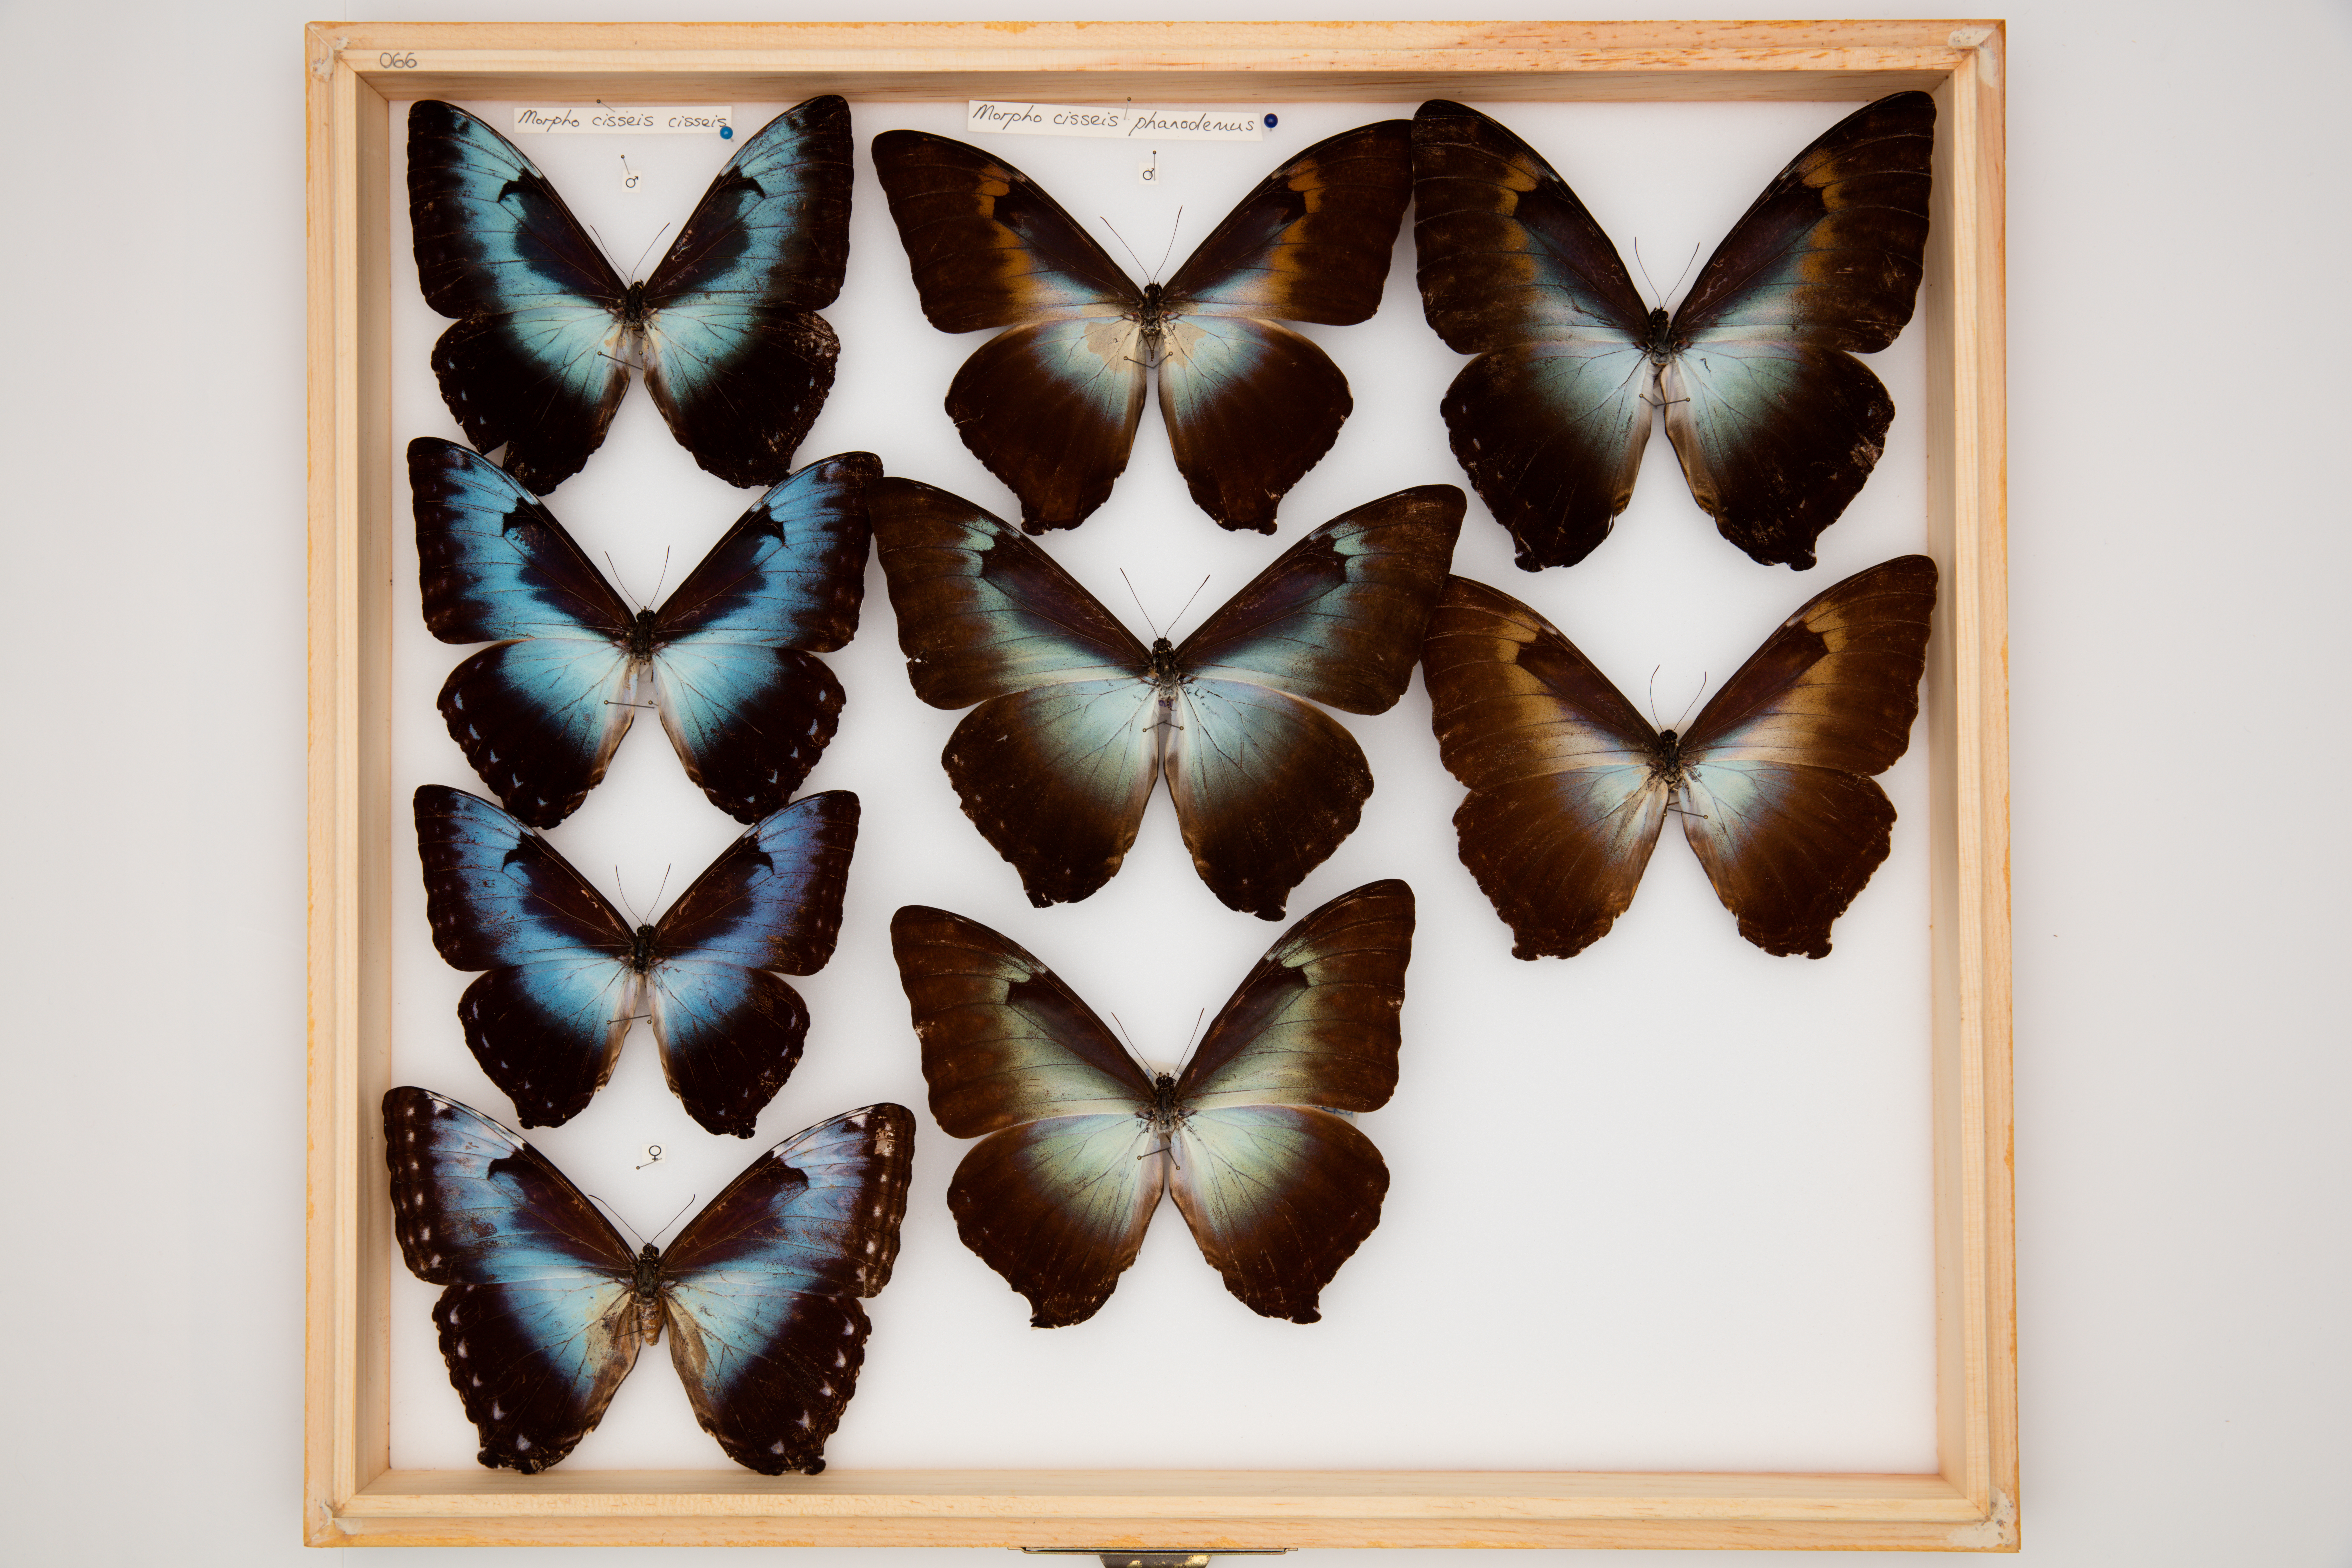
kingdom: Animalia
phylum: Arthropoda
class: Insecta
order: Lepidoptera
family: Nymphalidae
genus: Morpho
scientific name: Morpho cisseis
